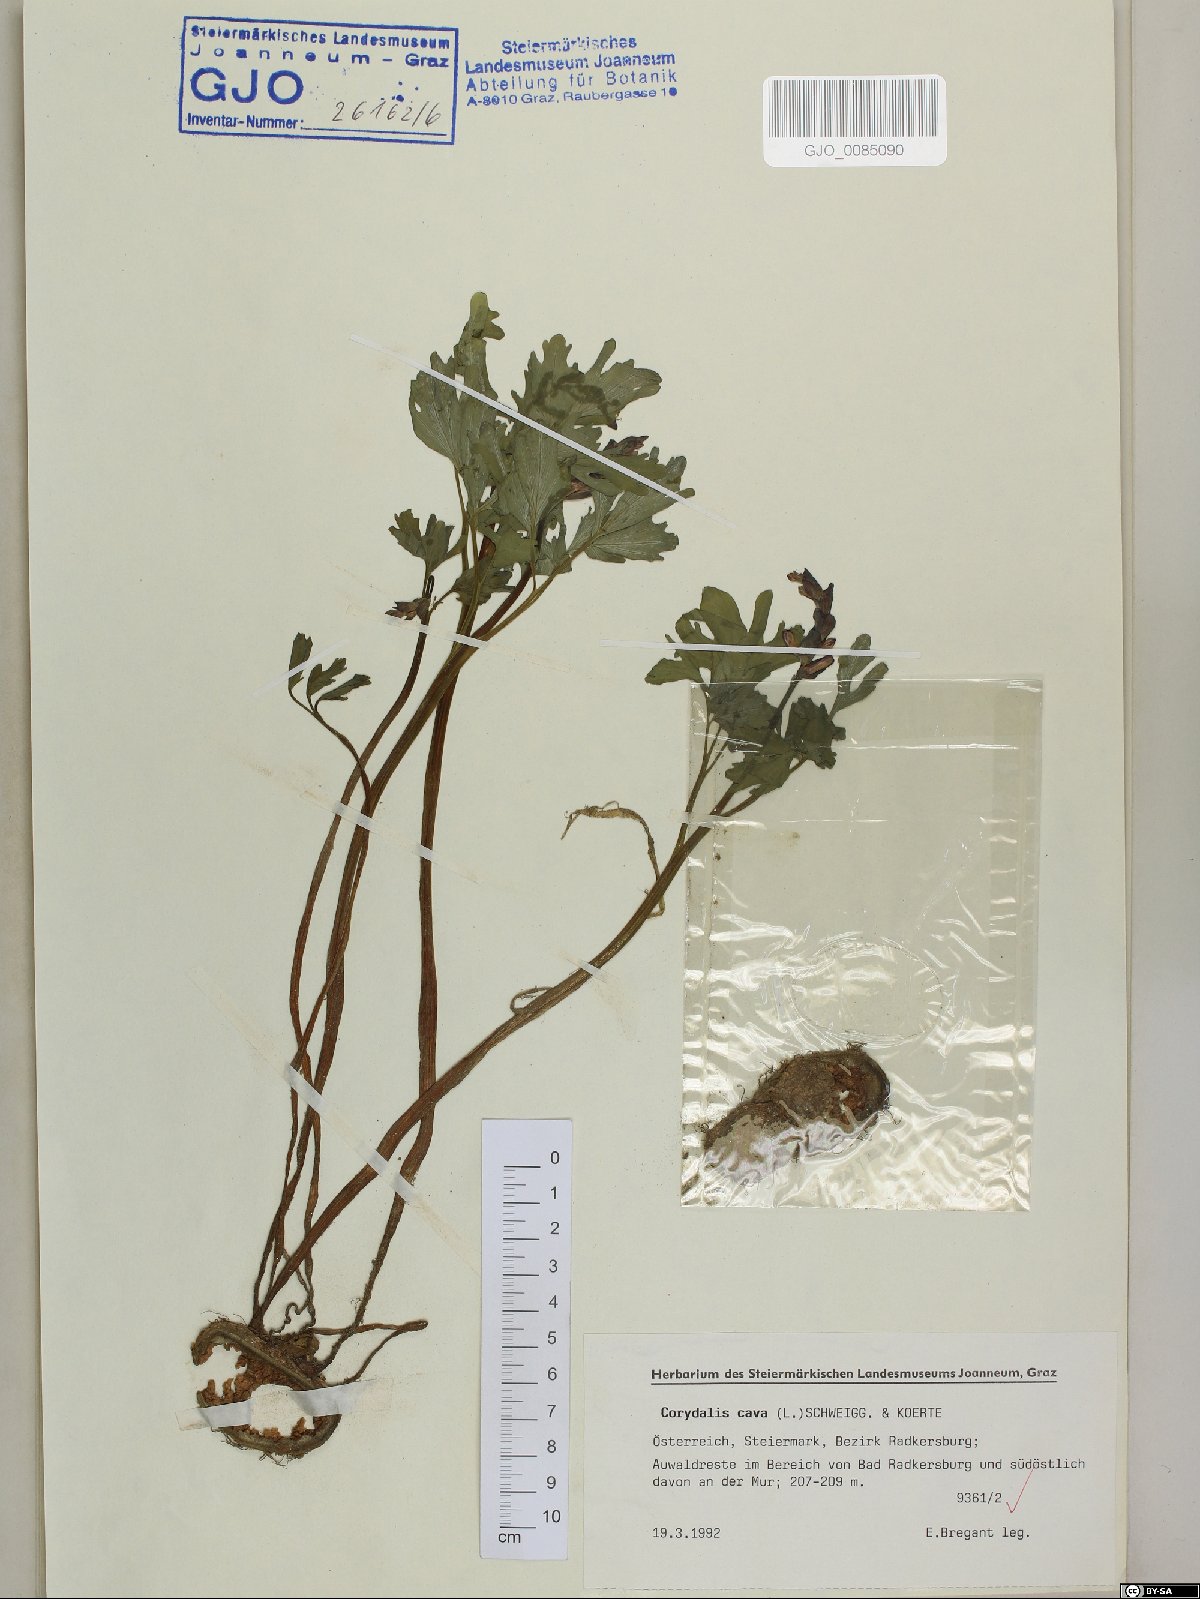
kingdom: Plantae
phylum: Tracheophyta
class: Magnoliopsida
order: Ranunculales
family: Papaveraceae
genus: Corydalis
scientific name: Corydalis cava
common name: Hollowroot
